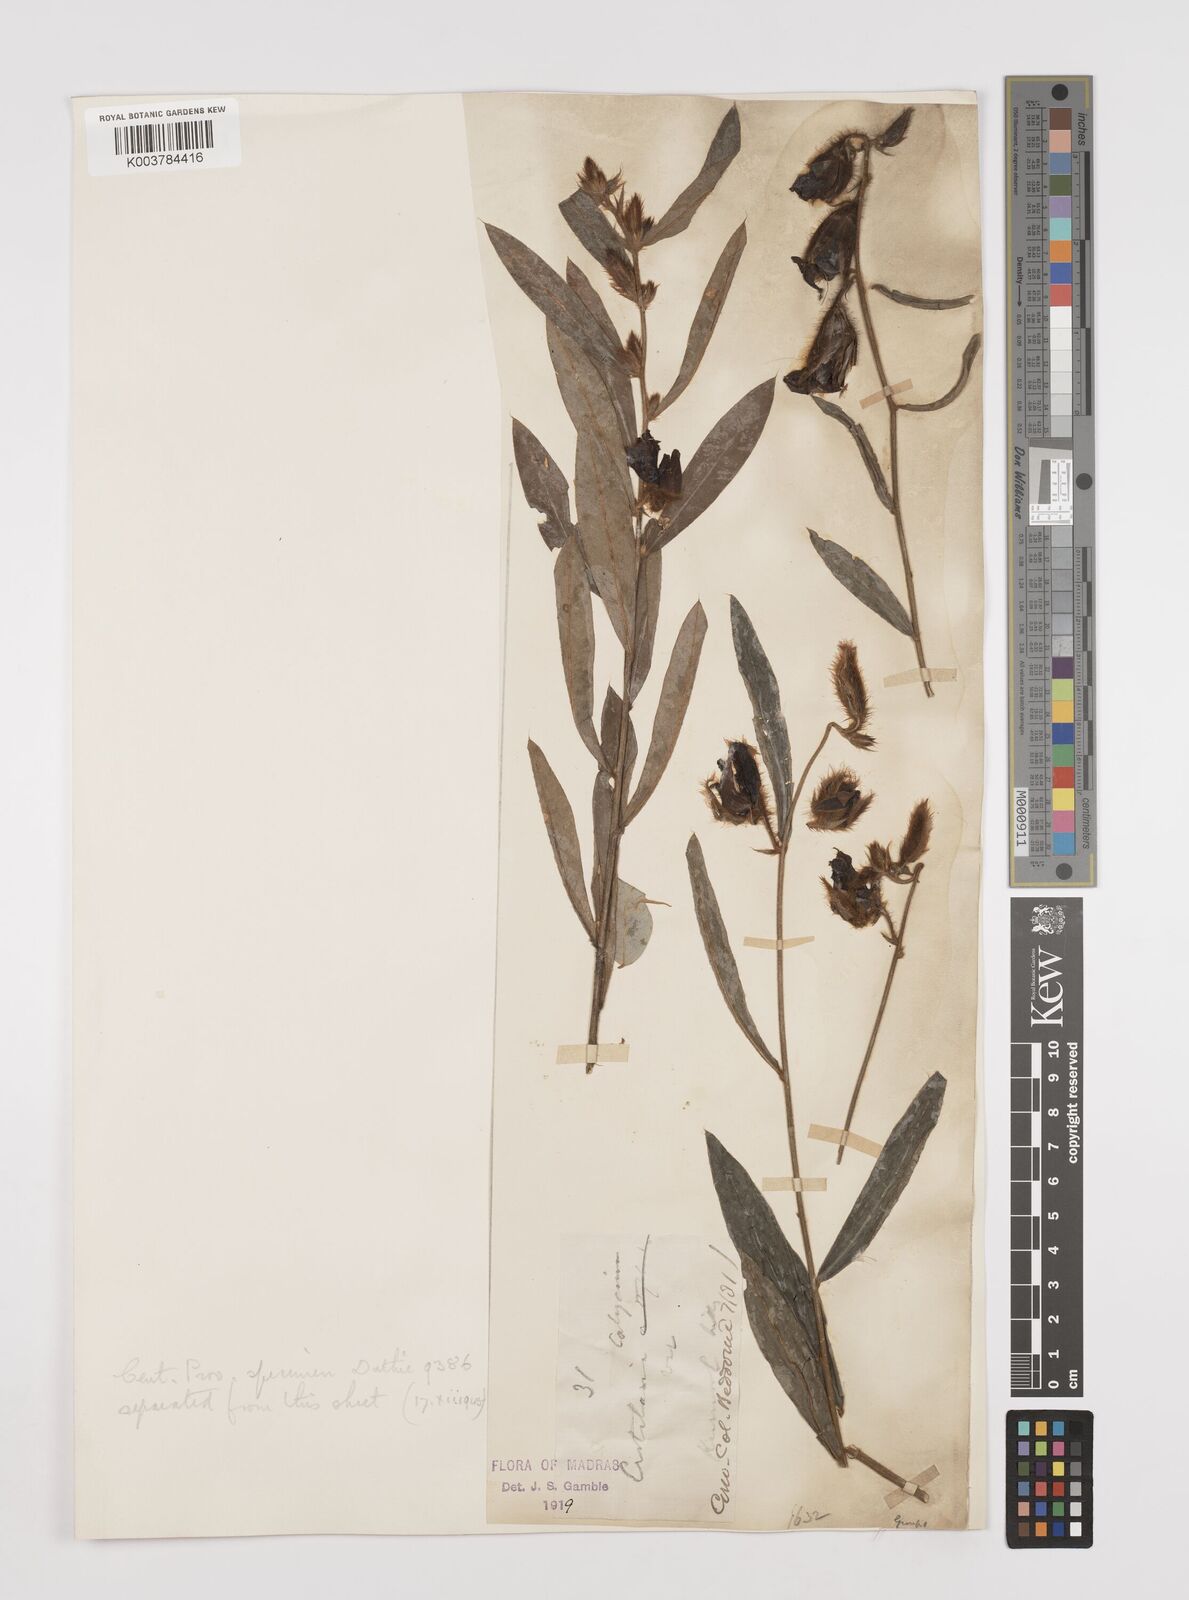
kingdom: Plantae
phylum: Tracheophyta
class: Magnoliopsida
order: Fabales
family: Fabaceae
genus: Crotalaria
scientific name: Crotalaria calycina
